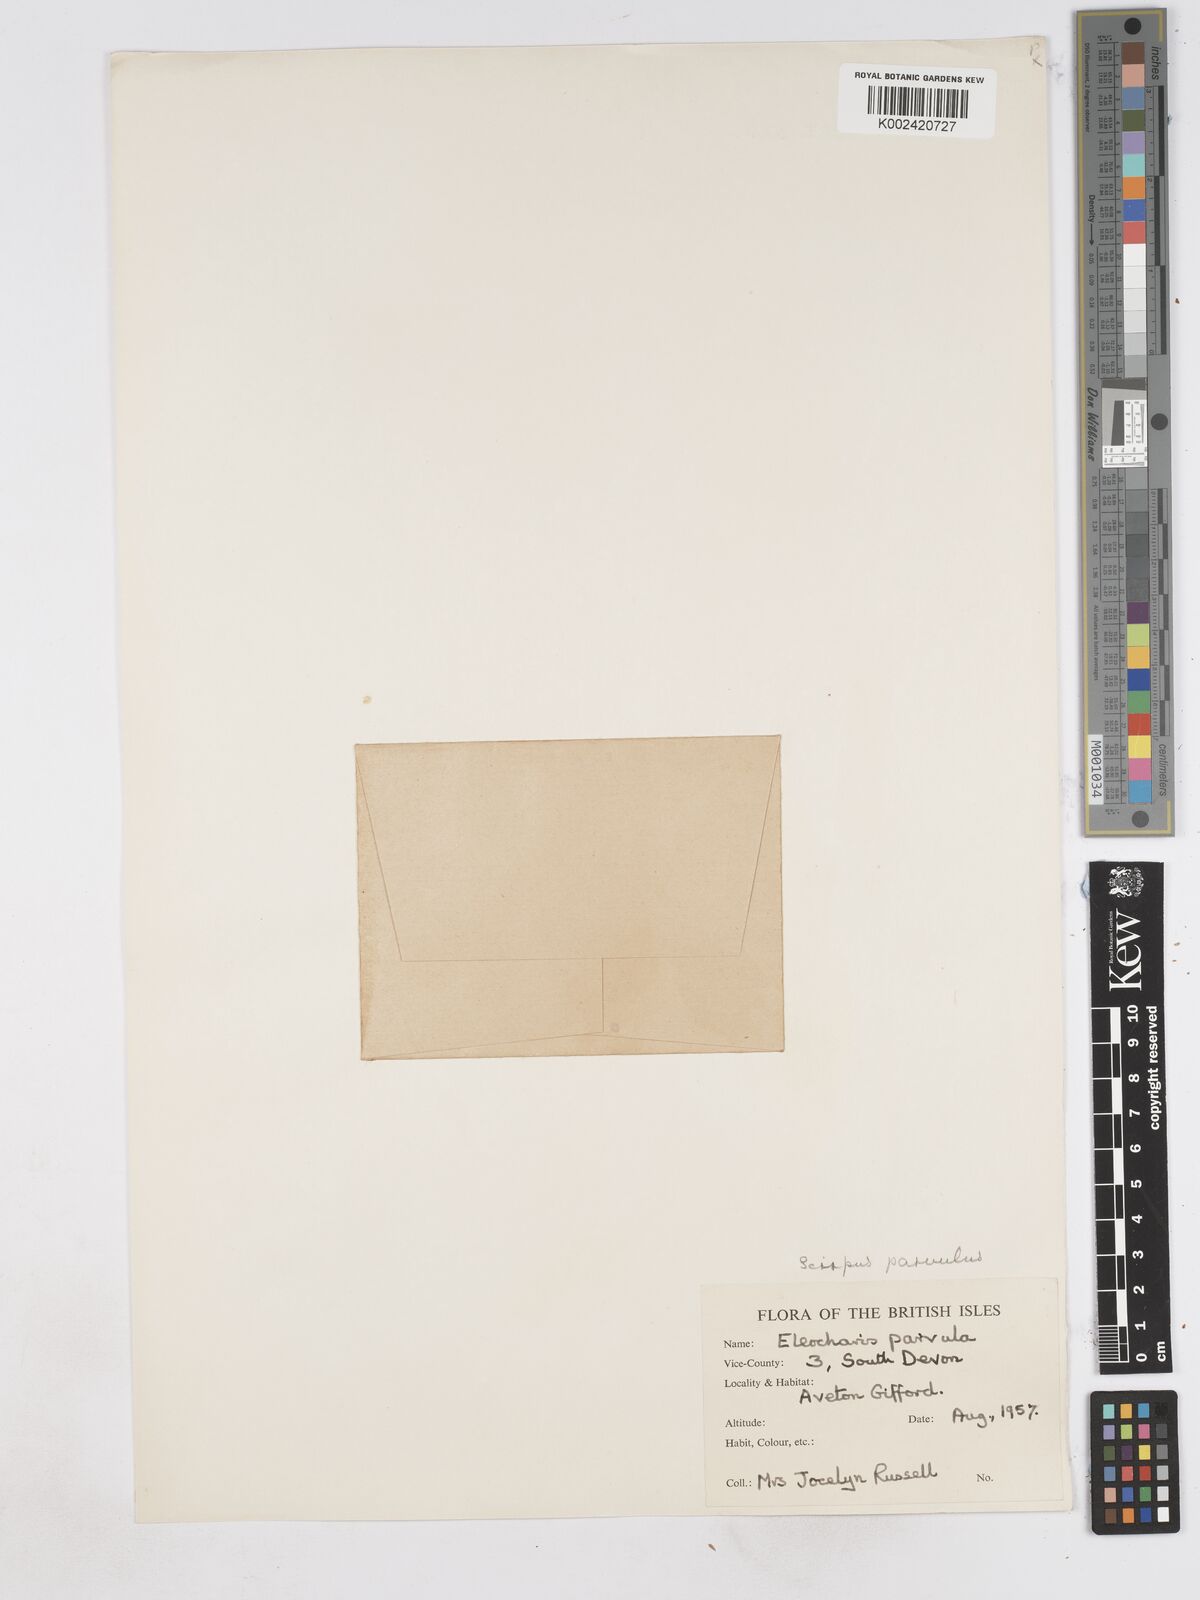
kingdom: Plantae
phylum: Tracheophyta
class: Liliopsida
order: Poales
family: Cyperaceae
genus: Eleocharis
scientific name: Eleocharis parvula
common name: Dwarf spike-rush
